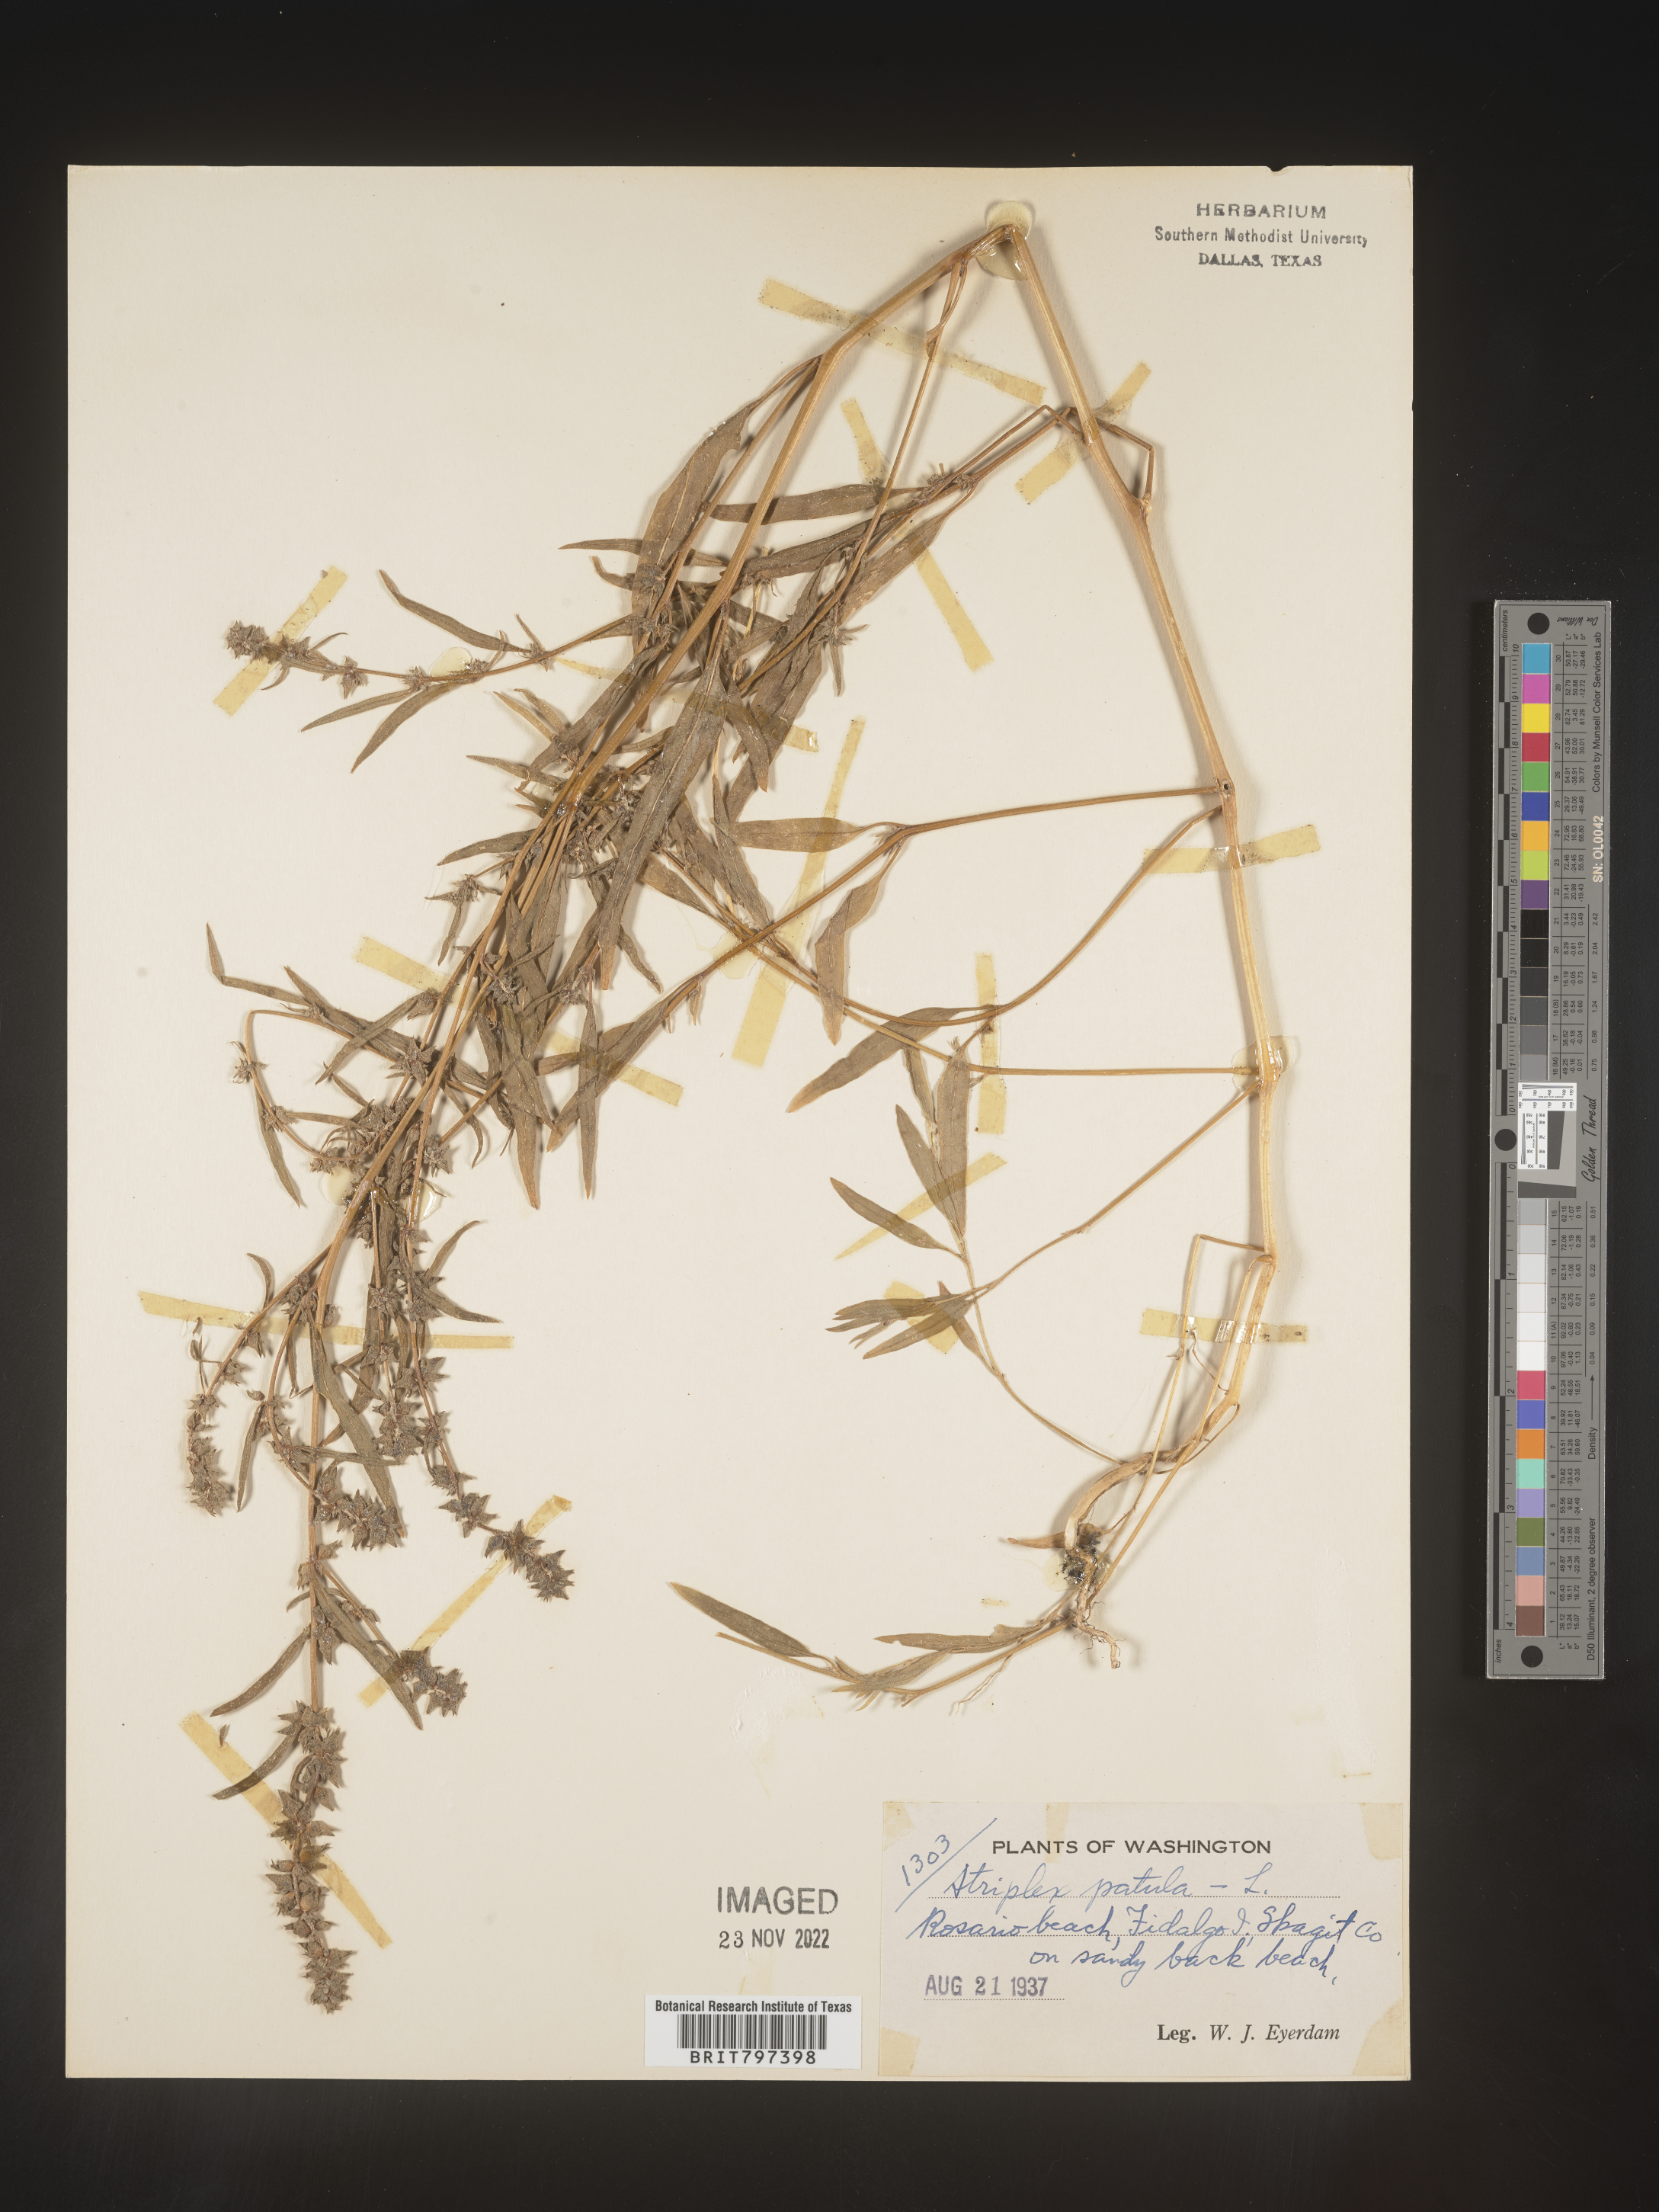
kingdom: Plantae
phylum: Tracheophyta
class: Magnoliopsida
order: Caryophyllales
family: Amaranthaceae
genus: Atriplex
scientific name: Atriplex prostrata
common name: Spear-leaved orache
